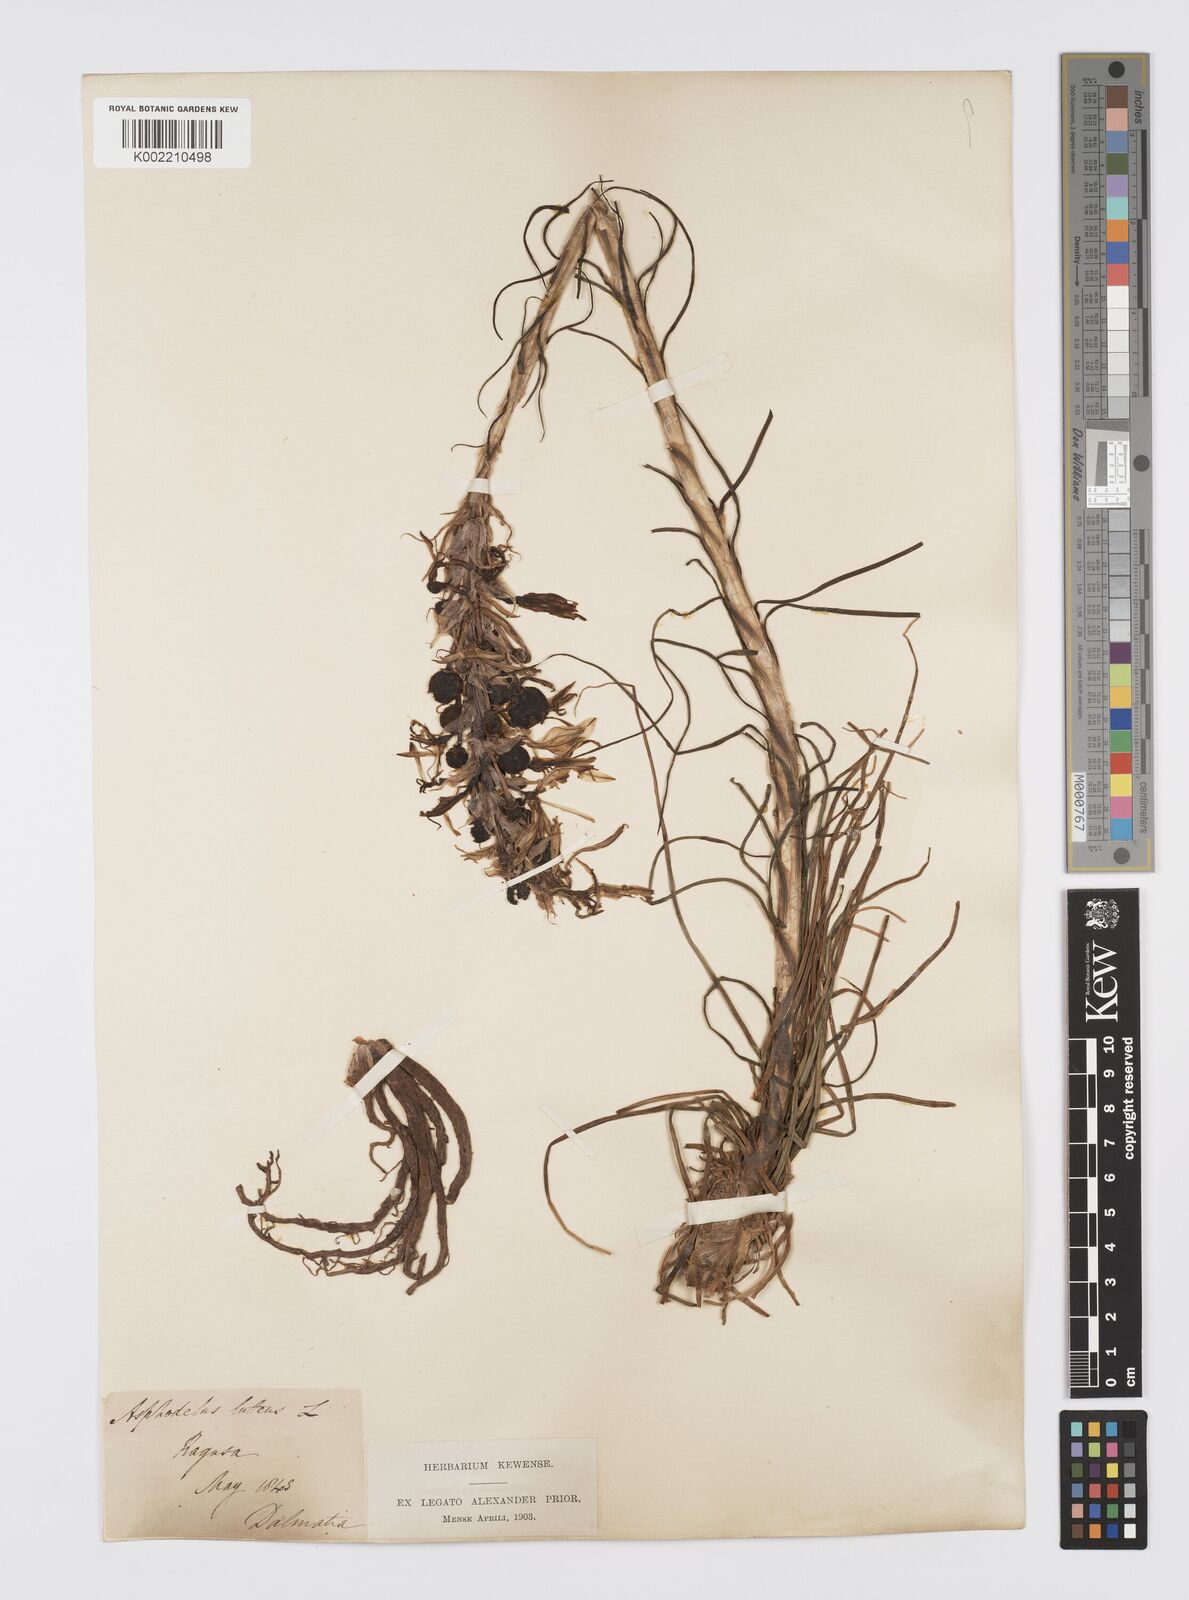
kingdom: Plantae
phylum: Tracheophyta
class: Liliopsida
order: Asparagales
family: Asphodelaceae
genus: Asphodeline
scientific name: Asphodeline lutea
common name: Yellow asphodel
